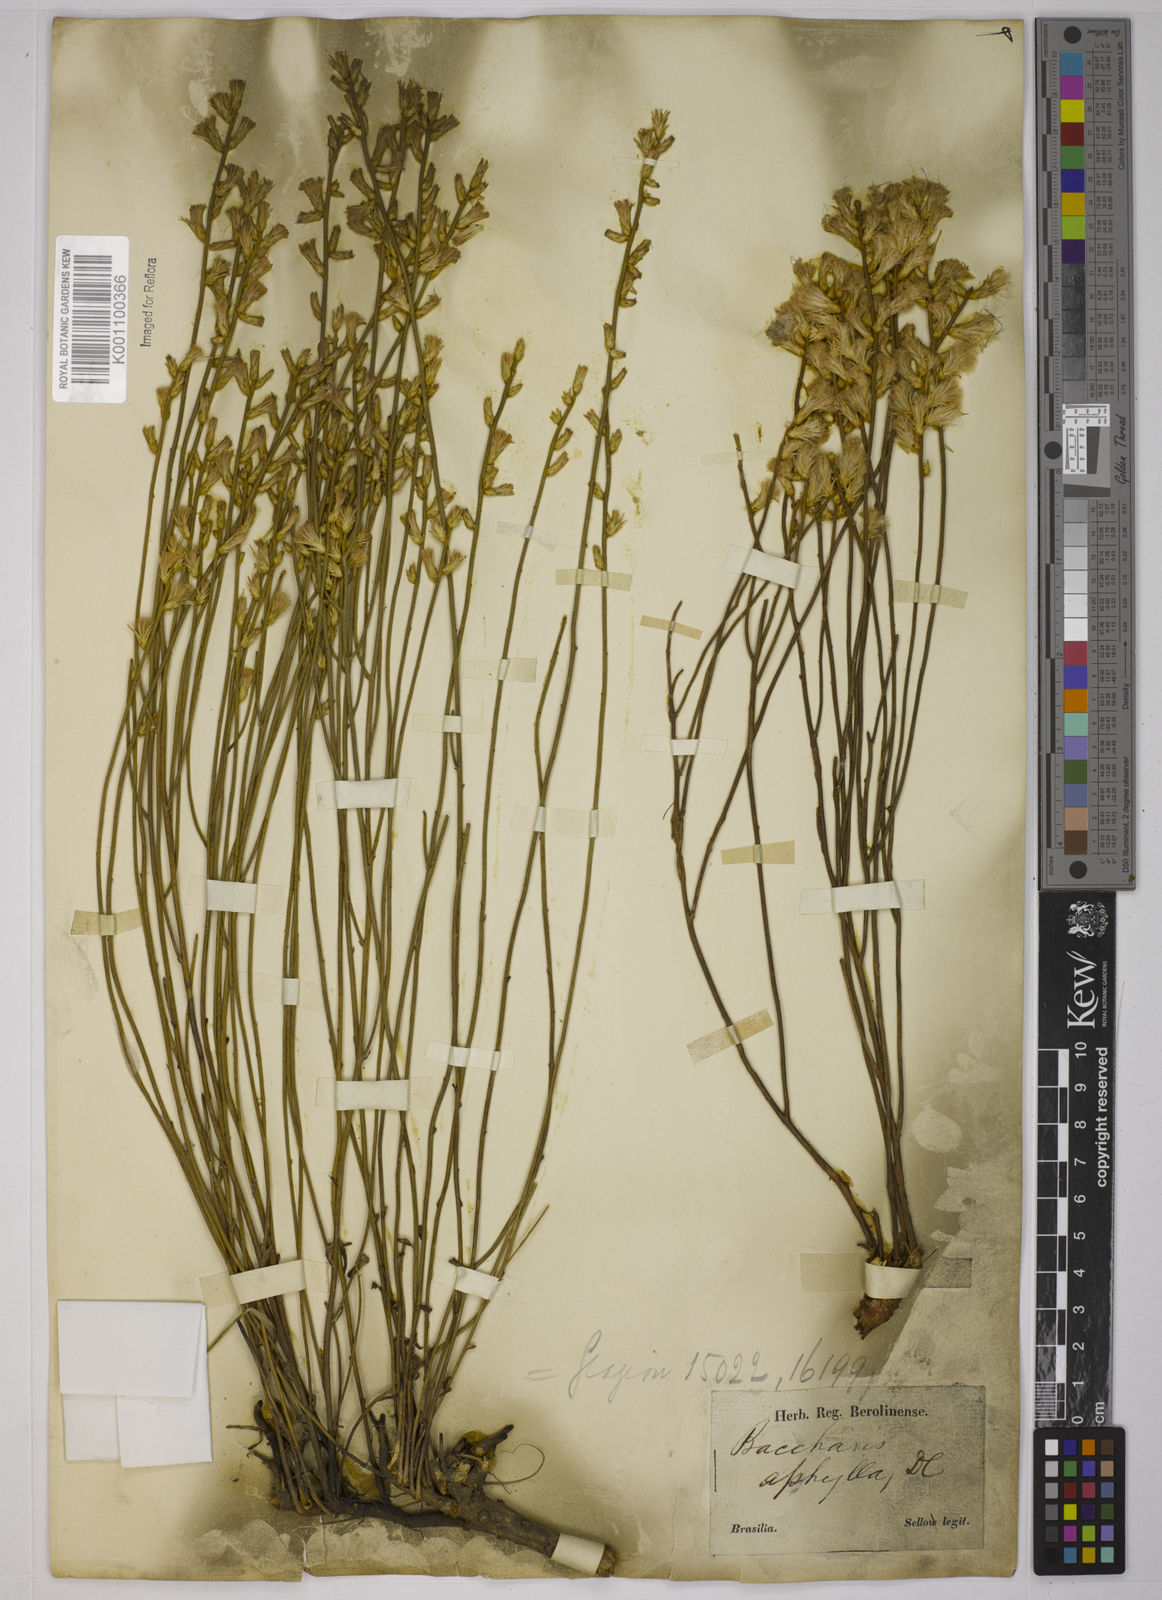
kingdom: Plantae
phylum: Tracheophyta
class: Magnoliopsida
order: Asterales
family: Asteraceae
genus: Baccharis
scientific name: Baccharis aphylla
